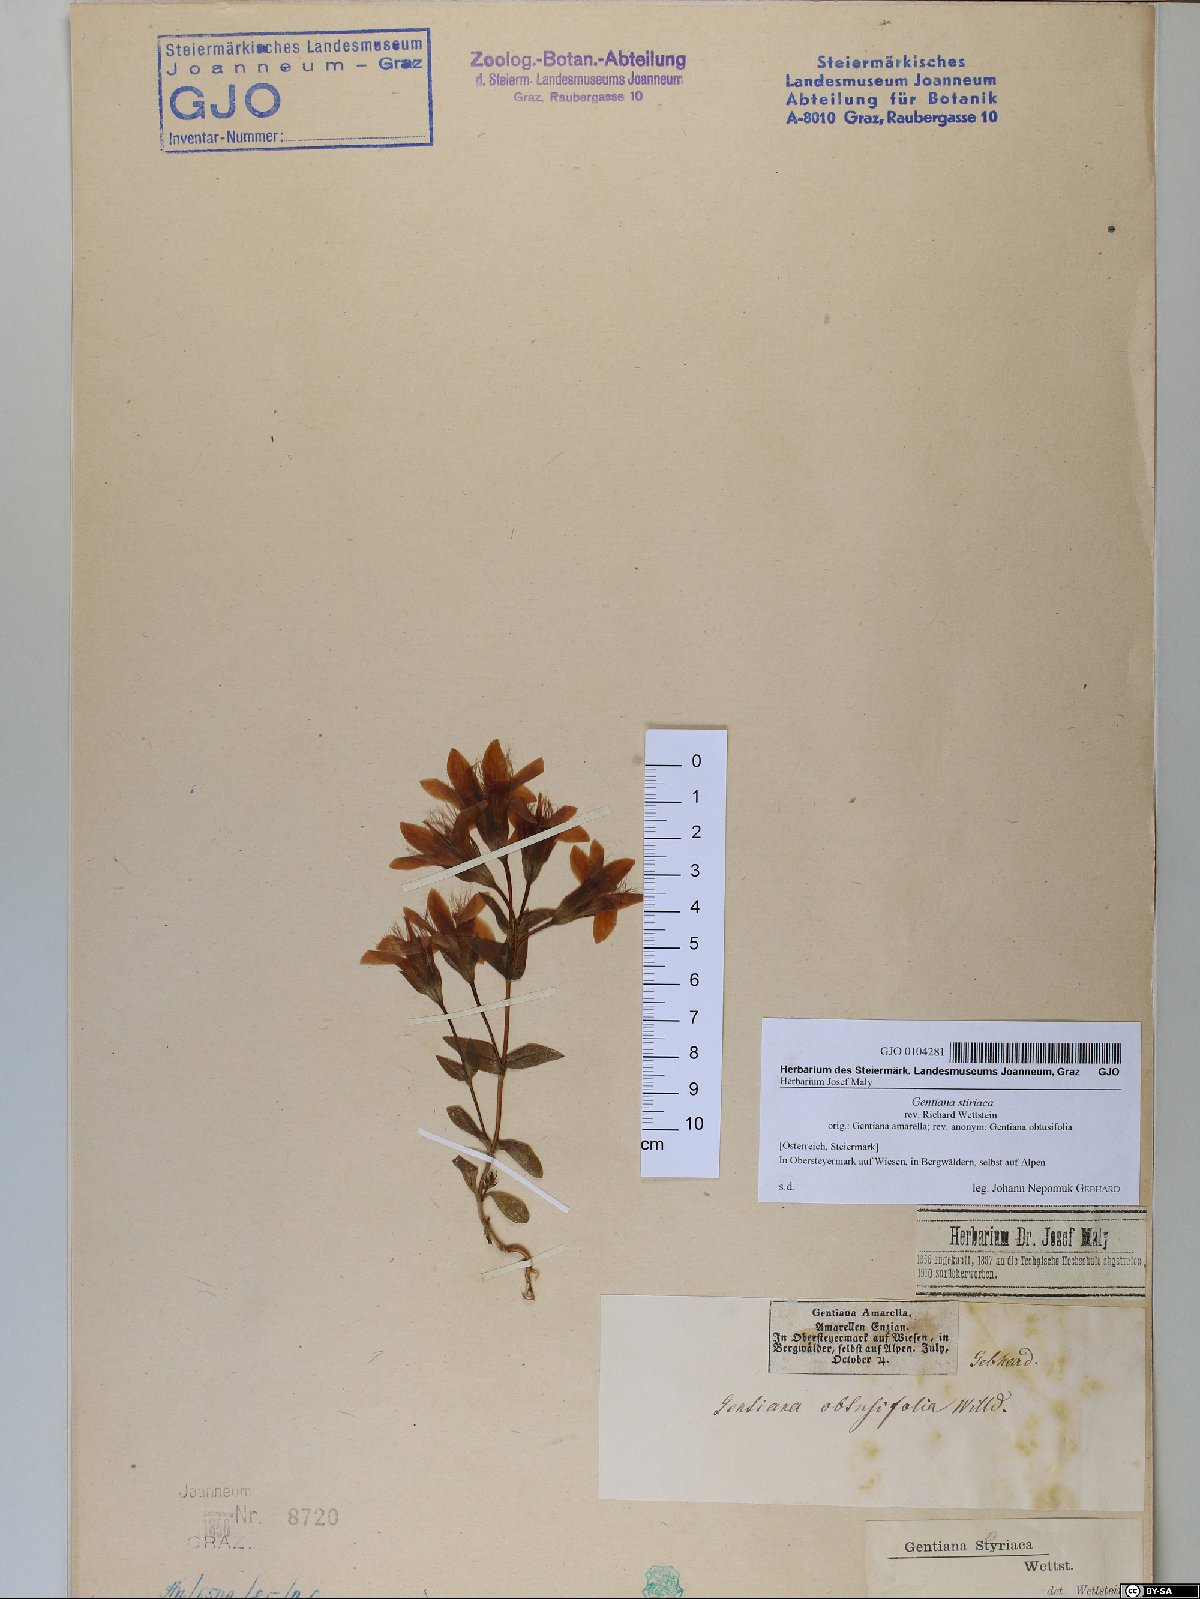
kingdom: Plantae
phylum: Tracheophyta
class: Magnoliopsida
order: Gentianales
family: Gentianaceae
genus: Gentianella
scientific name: Gentianella rhaetica
